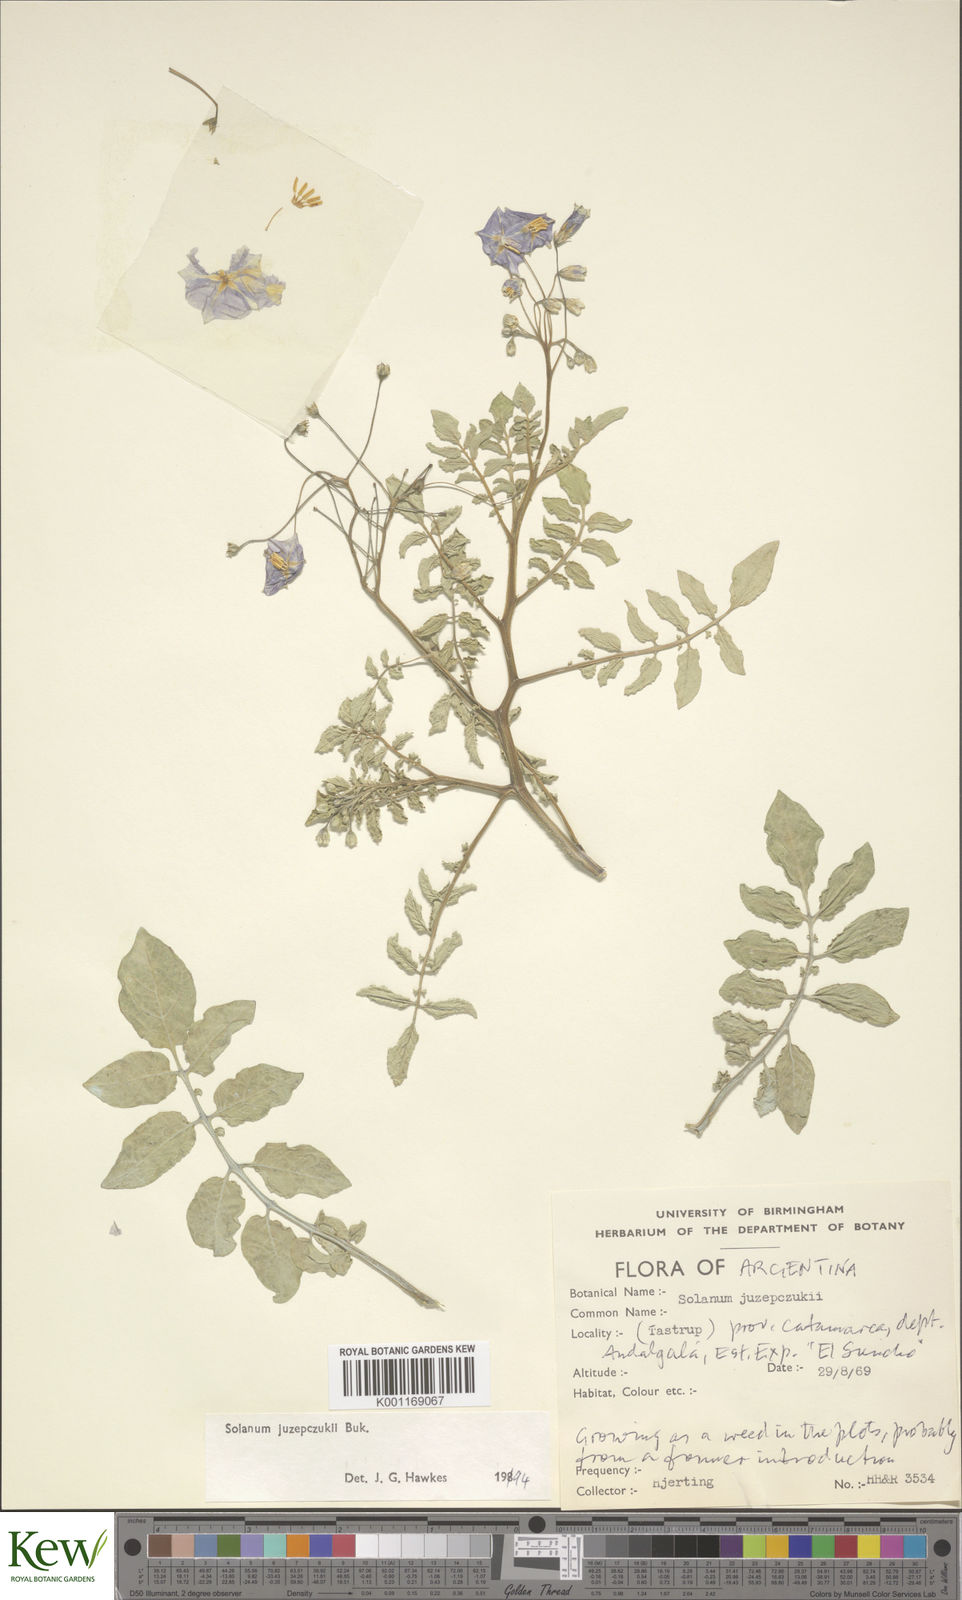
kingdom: Plantae
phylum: Tracheophyta
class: Magnoliopsida
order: Solanales
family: Solanaceae
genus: Solanum
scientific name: Solanum juzepczukii
